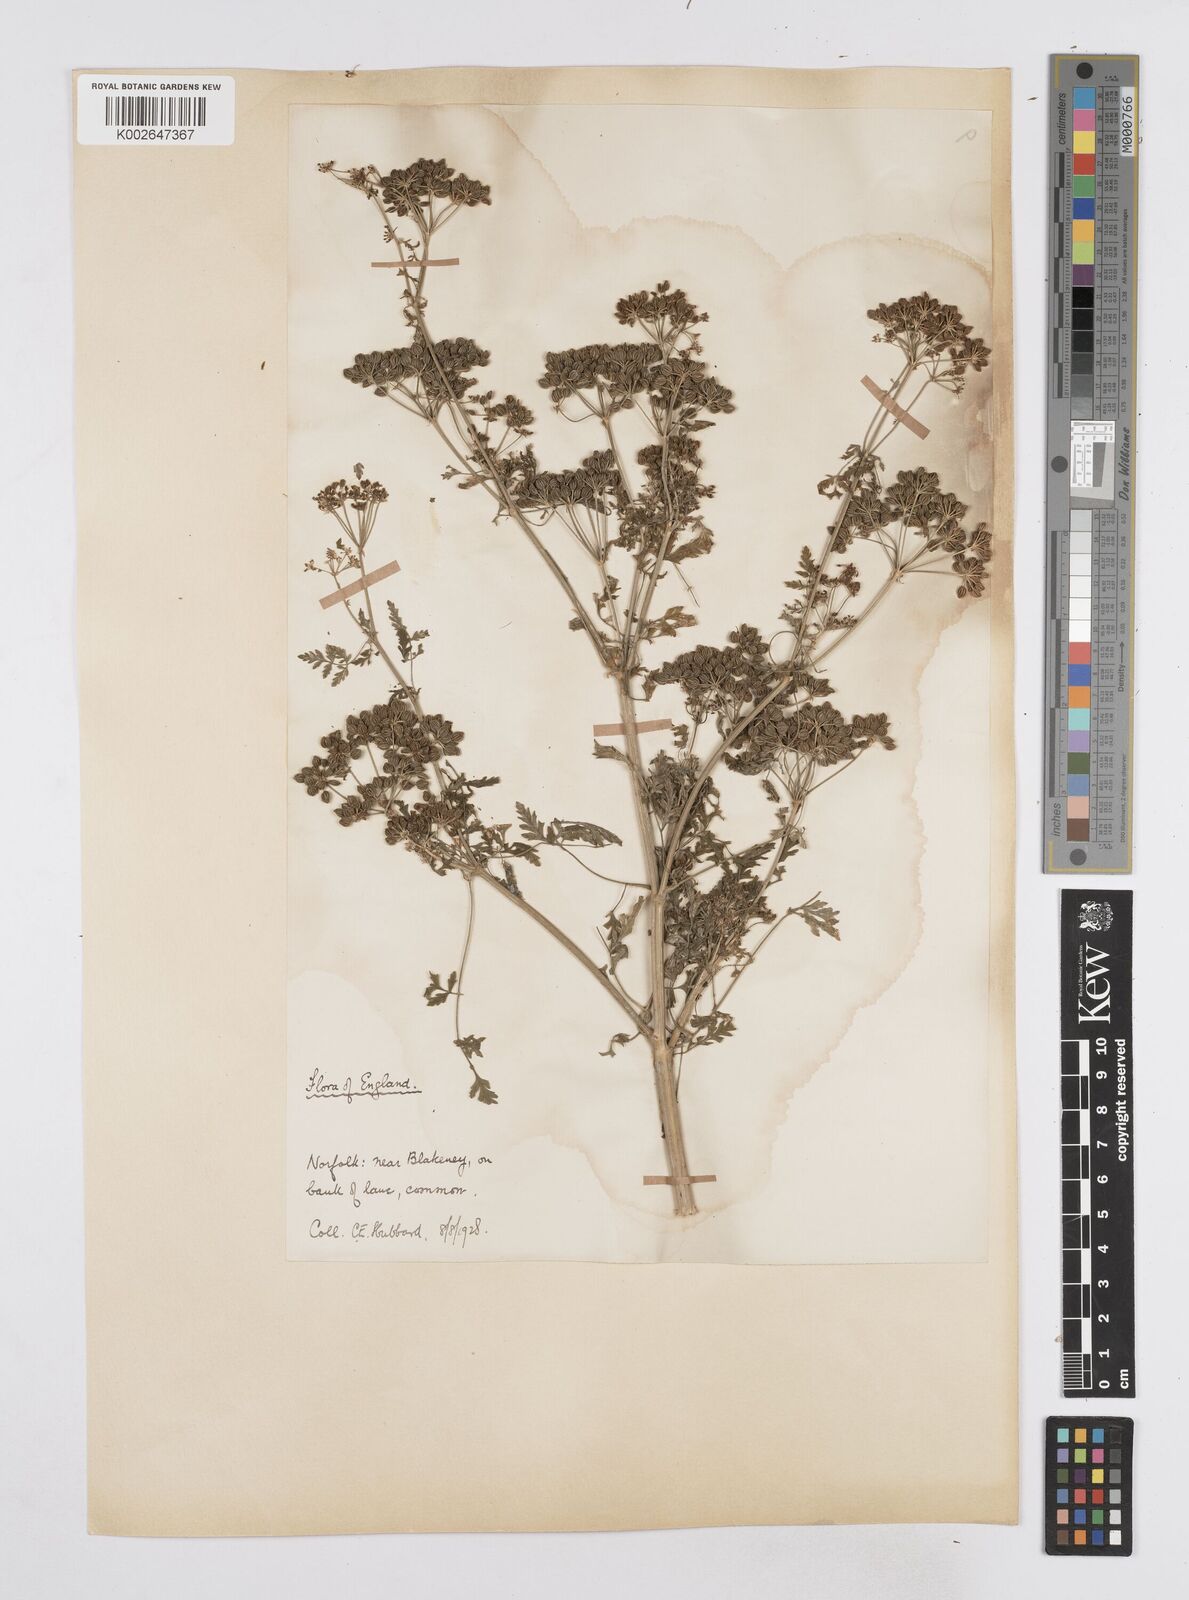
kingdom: Plantae
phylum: Tracheophyta
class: Magnoliopsida
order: Apiales
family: Apiaceae
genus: Conium
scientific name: Conium maculatum
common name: Hemlock
